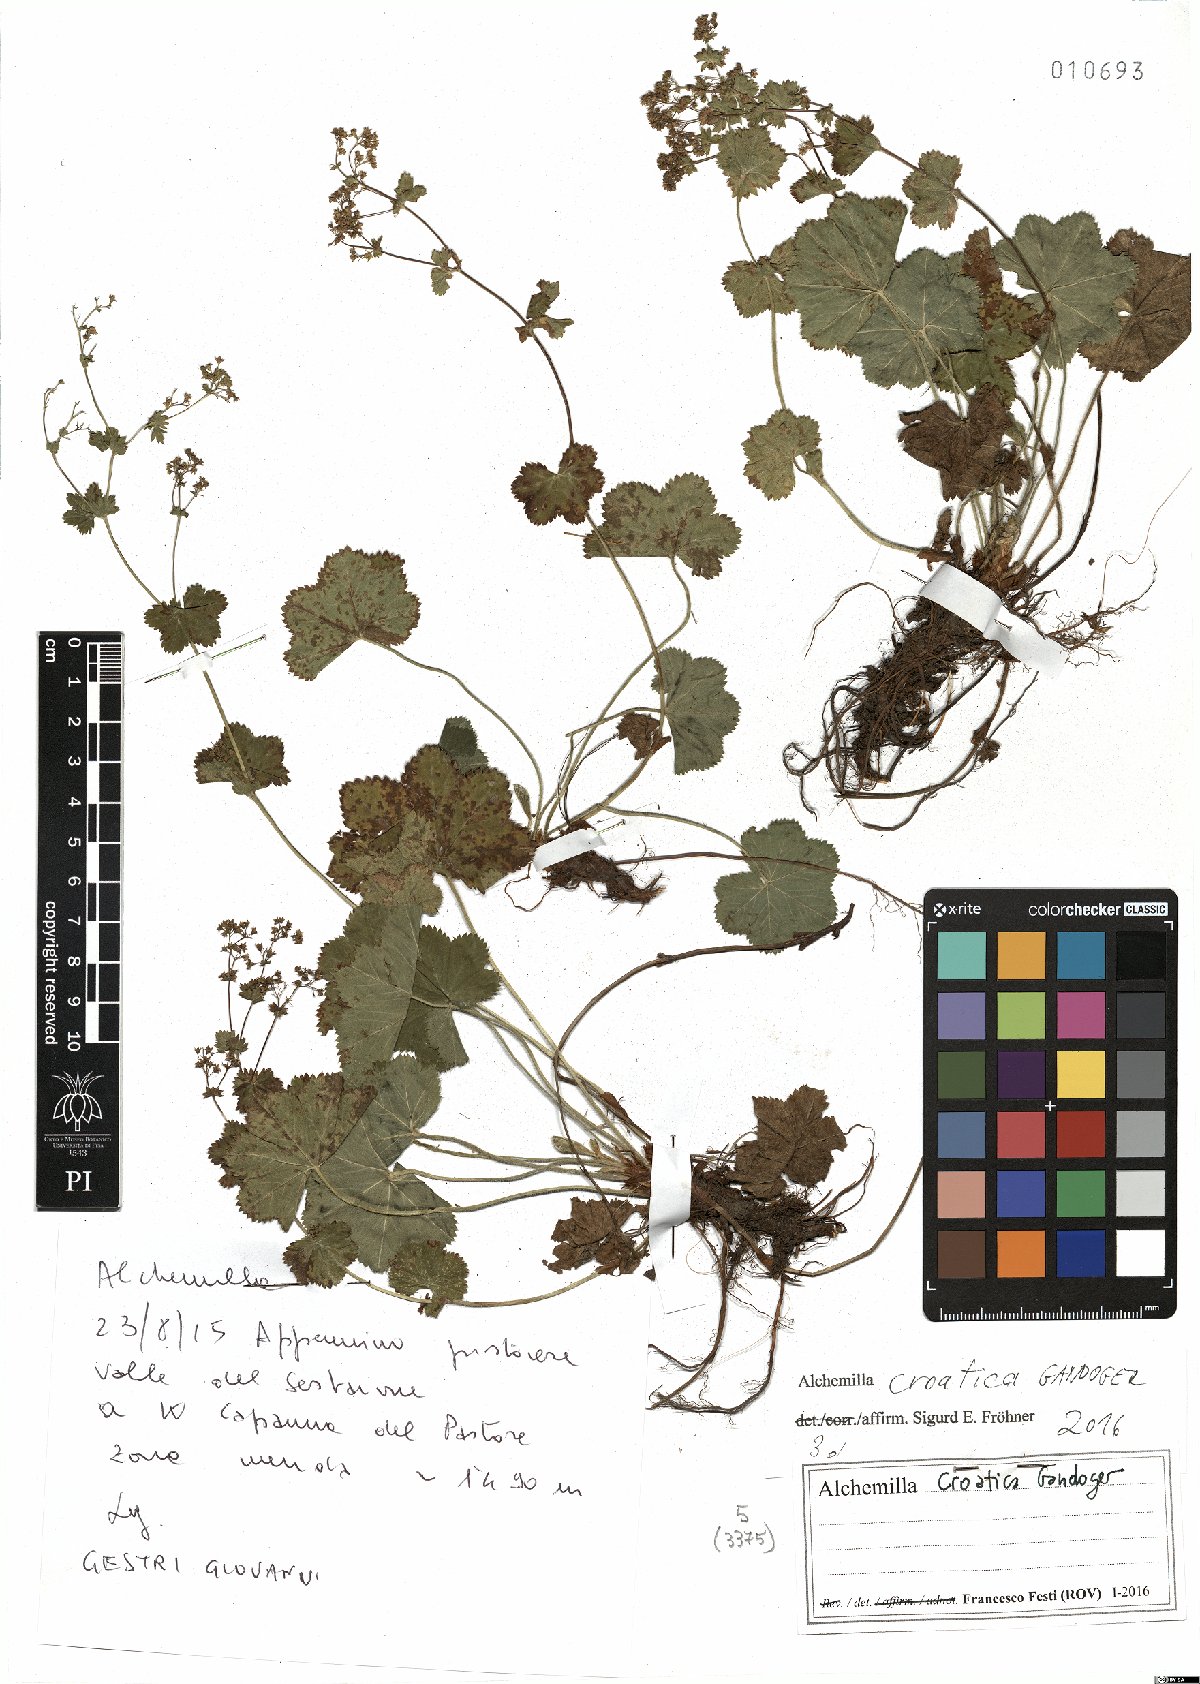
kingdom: Plantae
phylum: Tracheophyta
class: Magnoliopsida
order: Rosales
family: Rosaceae
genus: Alchemilla
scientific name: Alchemilla croatica
